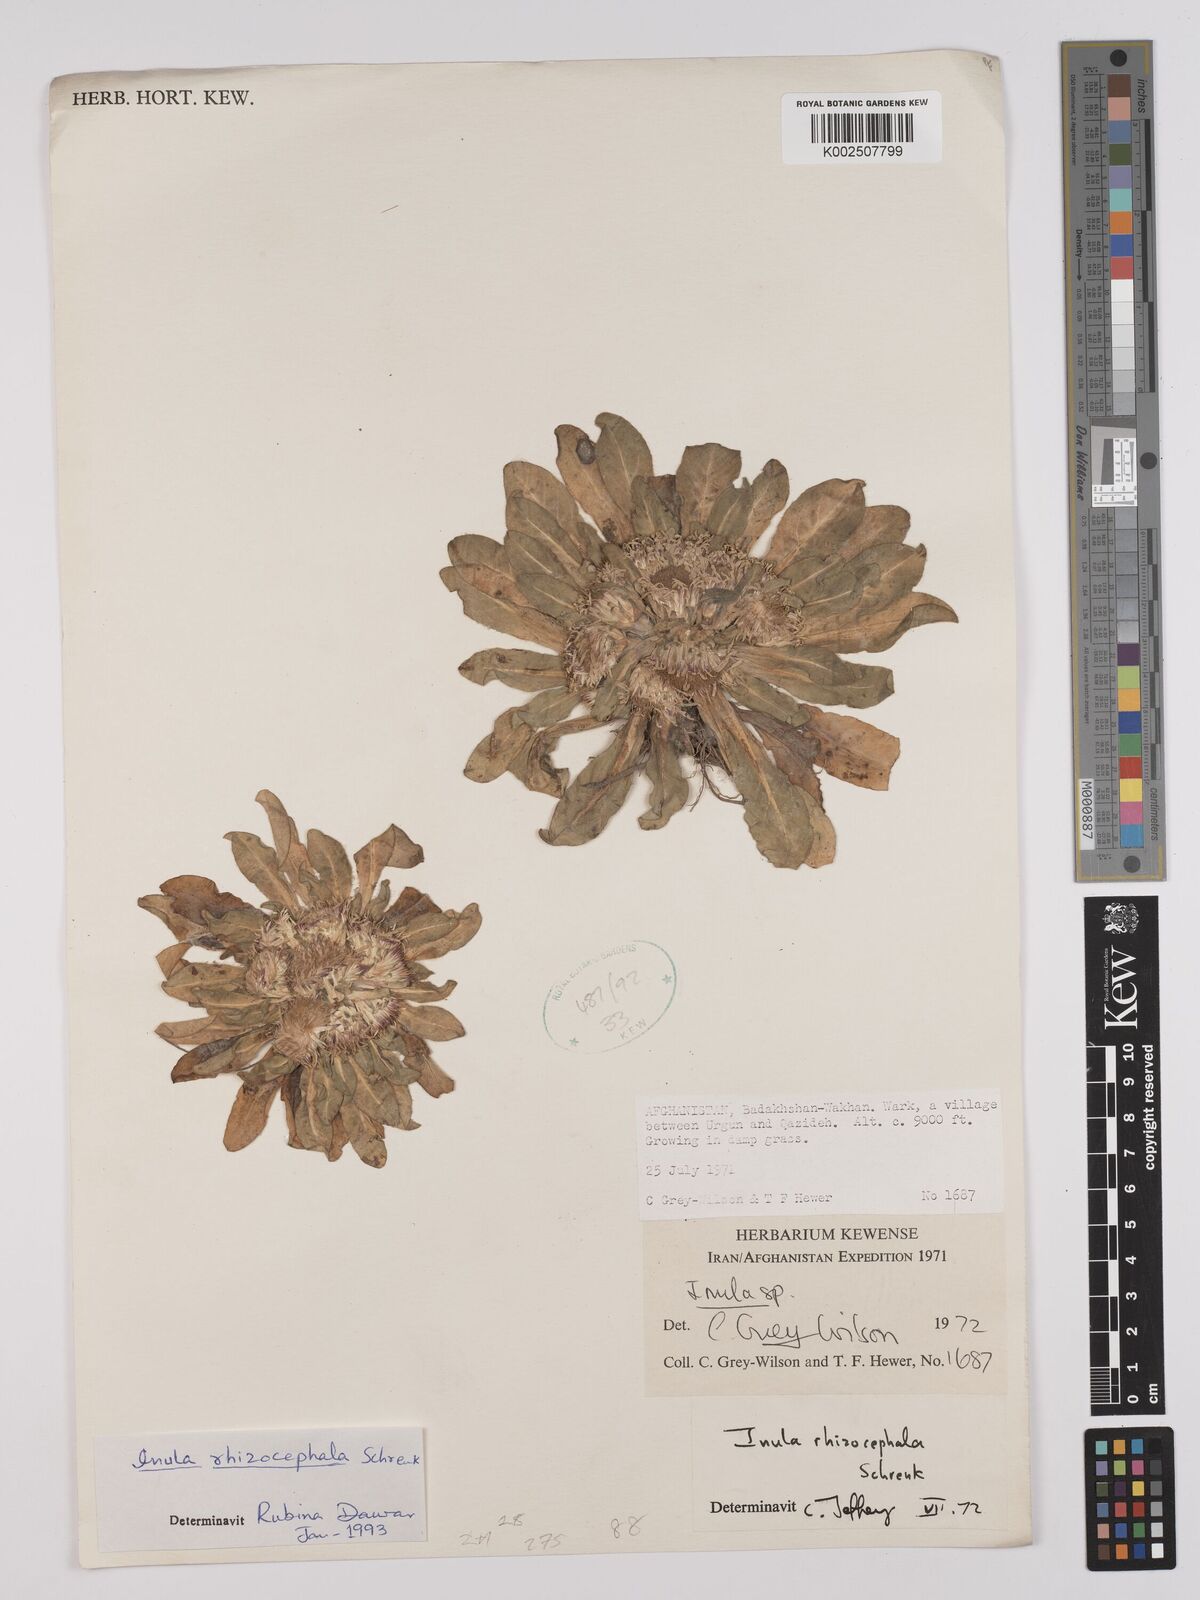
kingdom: Plantae
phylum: Tracheophyta
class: Magnoliopsida
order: Asterales
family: Asteraceae
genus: Inula
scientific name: Inula rhizocephala
